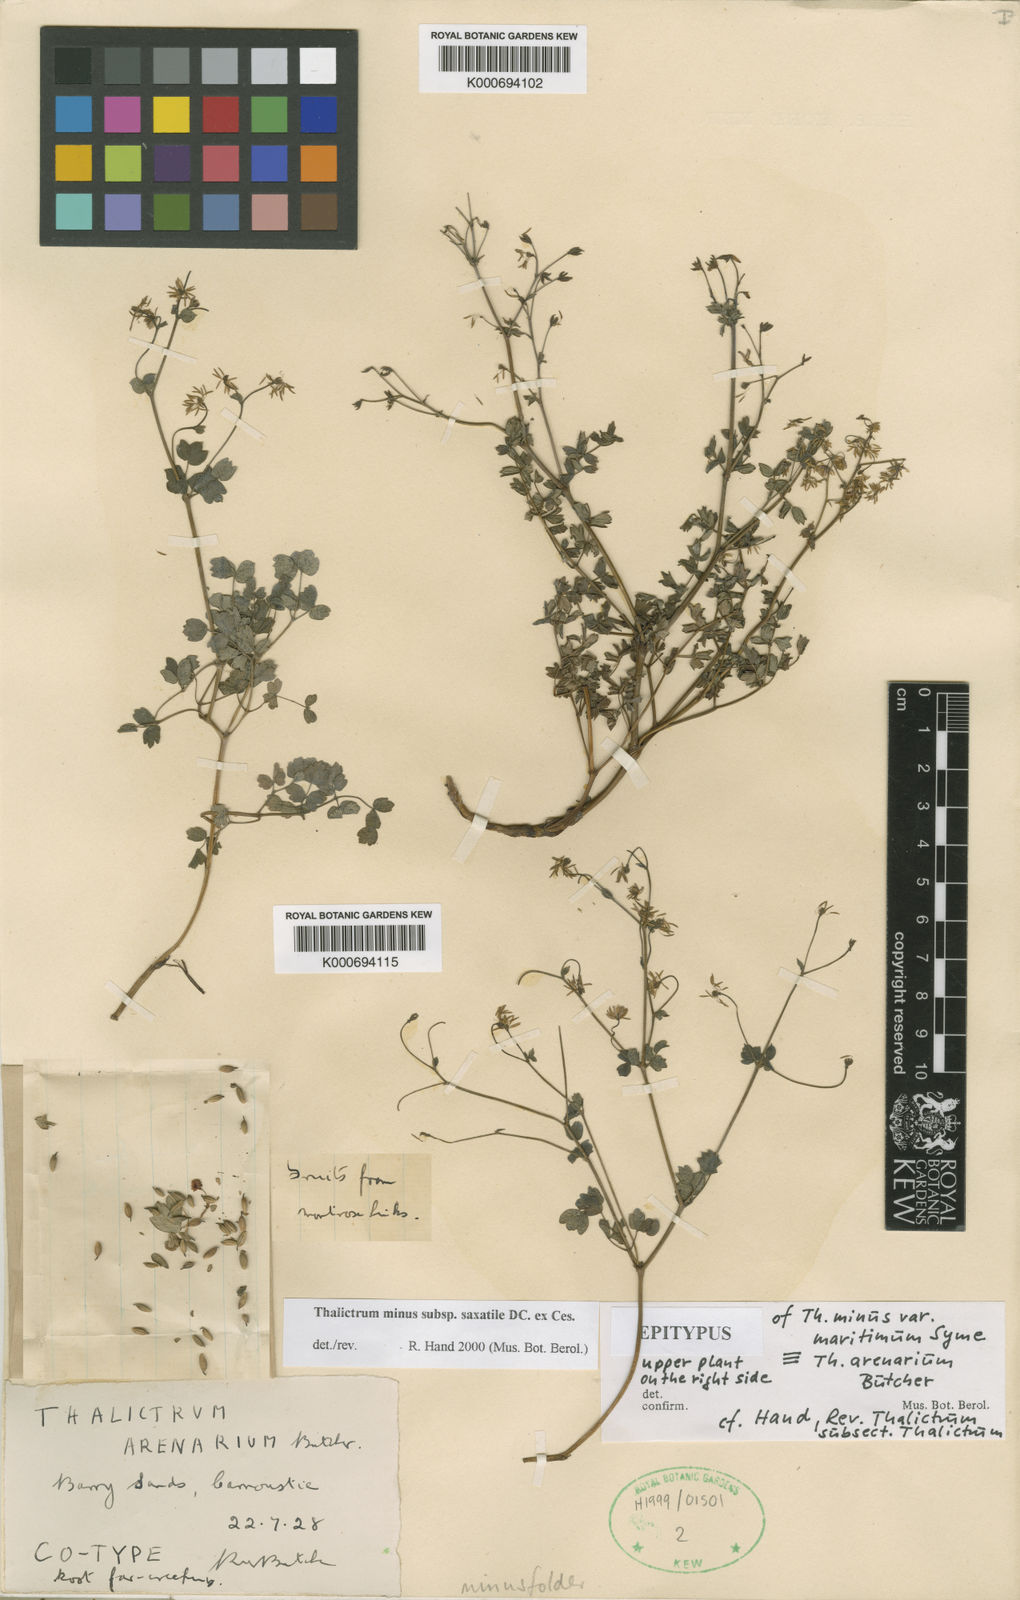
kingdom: Plantae
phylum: Tracheophyta
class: Magnoliopsida
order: Ranunculales
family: Ranunculaceae
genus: Thalictrum
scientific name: Thalictrum minus
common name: Lesser meadow-rue
